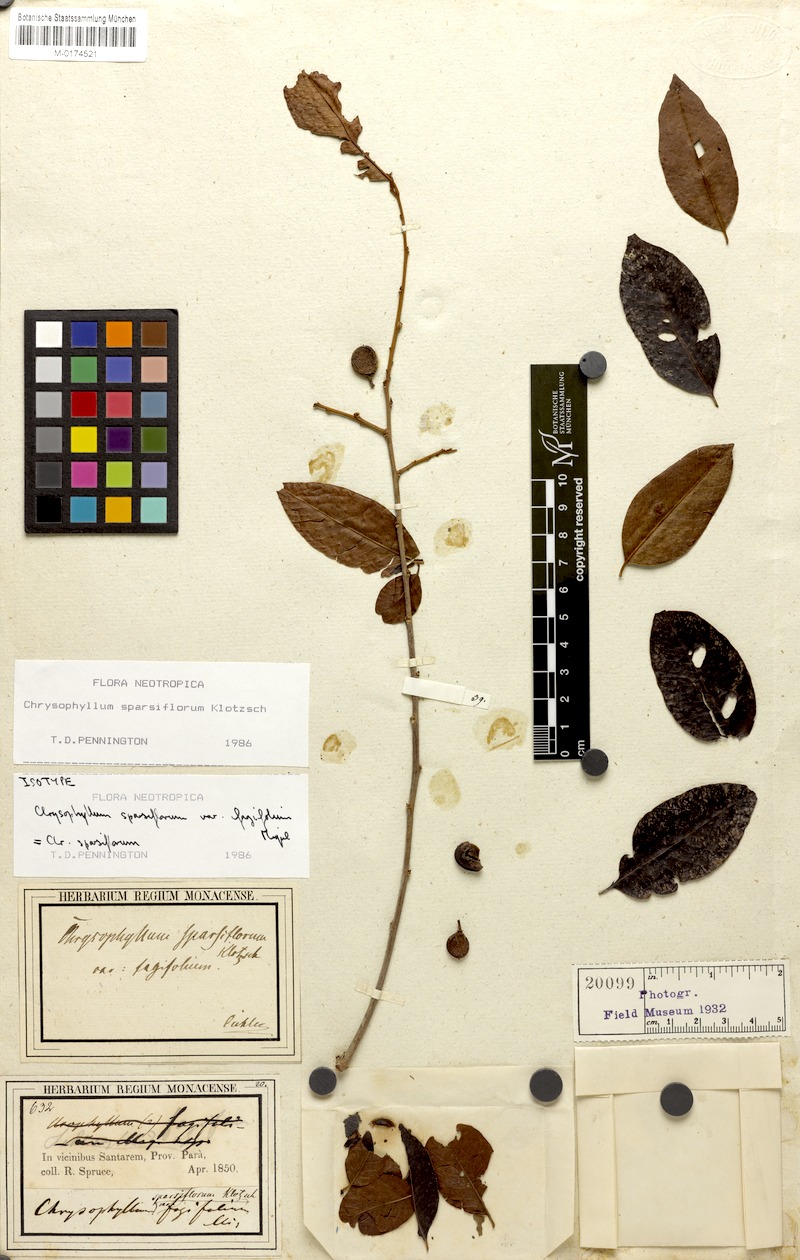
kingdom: Plantae
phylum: Tracheophyta
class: Magnoliopsida
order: Ericales
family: Sapotaceae
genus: Chrysophyllum
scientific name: Chrysophyllum sparsiflorum
